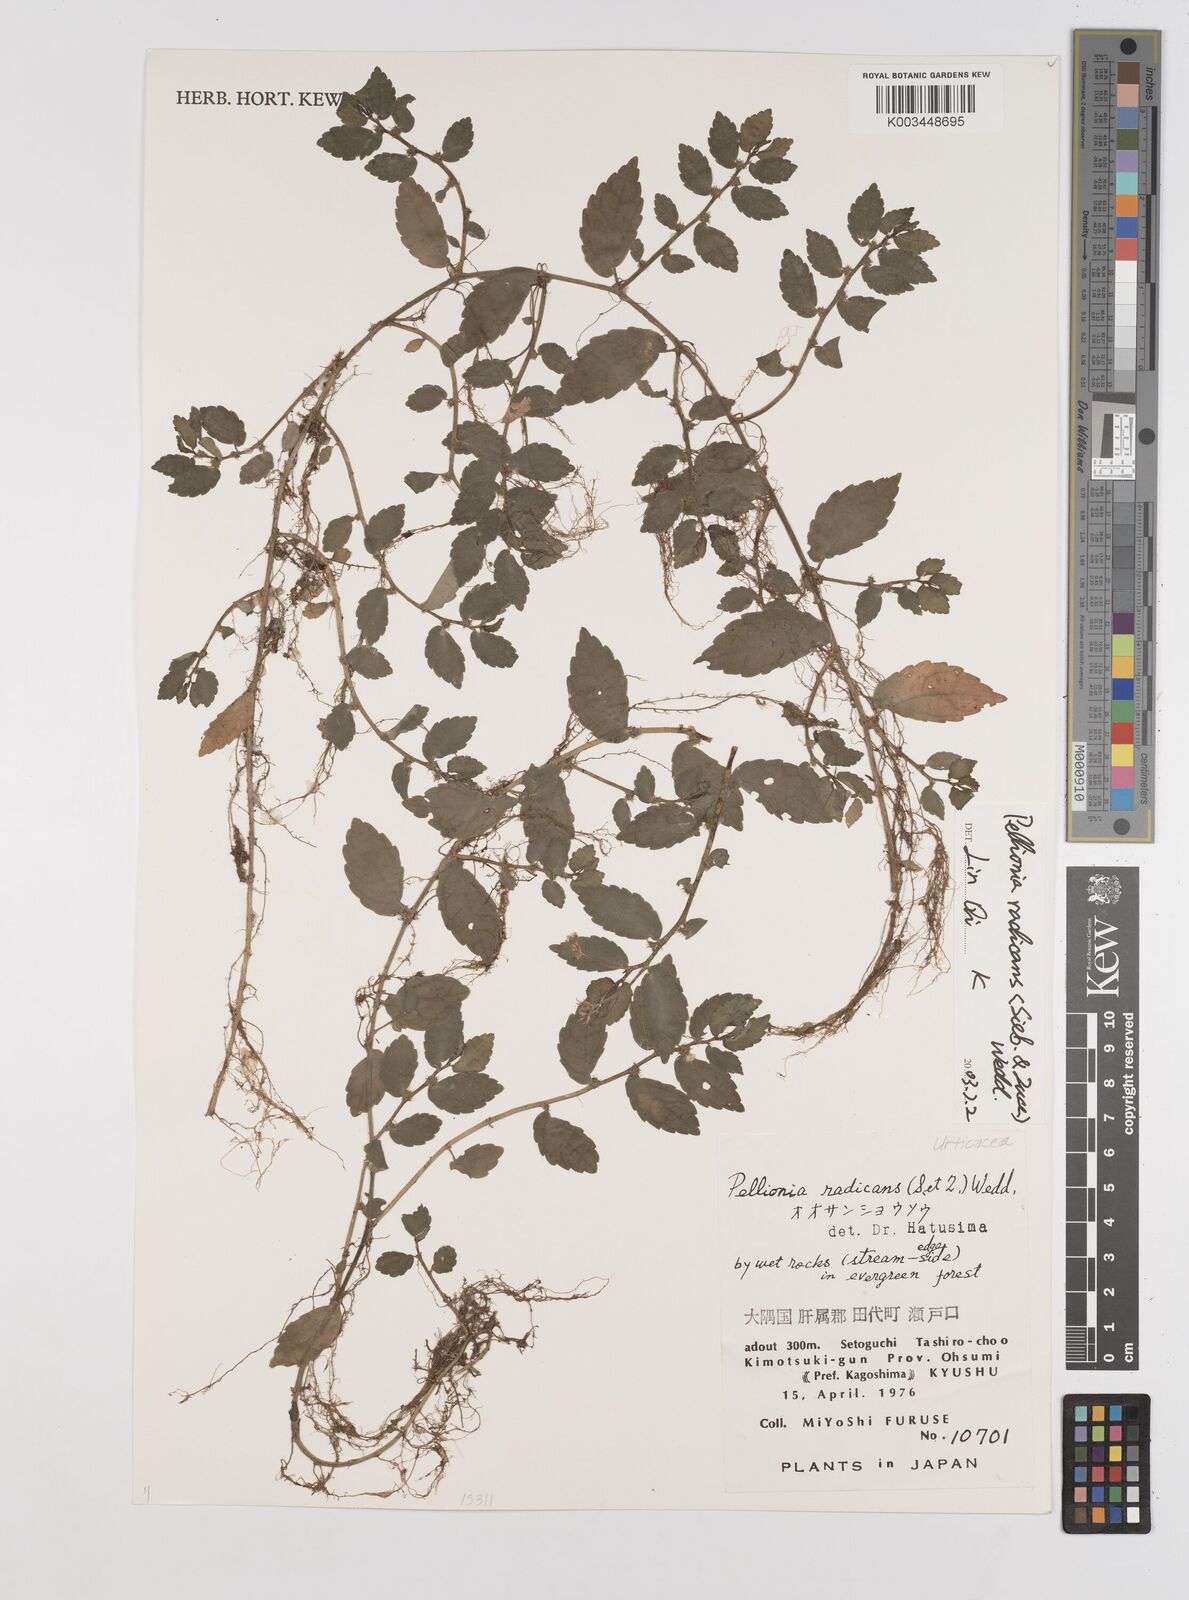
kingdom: Plantae
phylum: Tracheophyta
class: Magnoliopsida
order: Rosales
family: Urticaceae
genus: Elatostema
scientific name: Elatostema radicans
